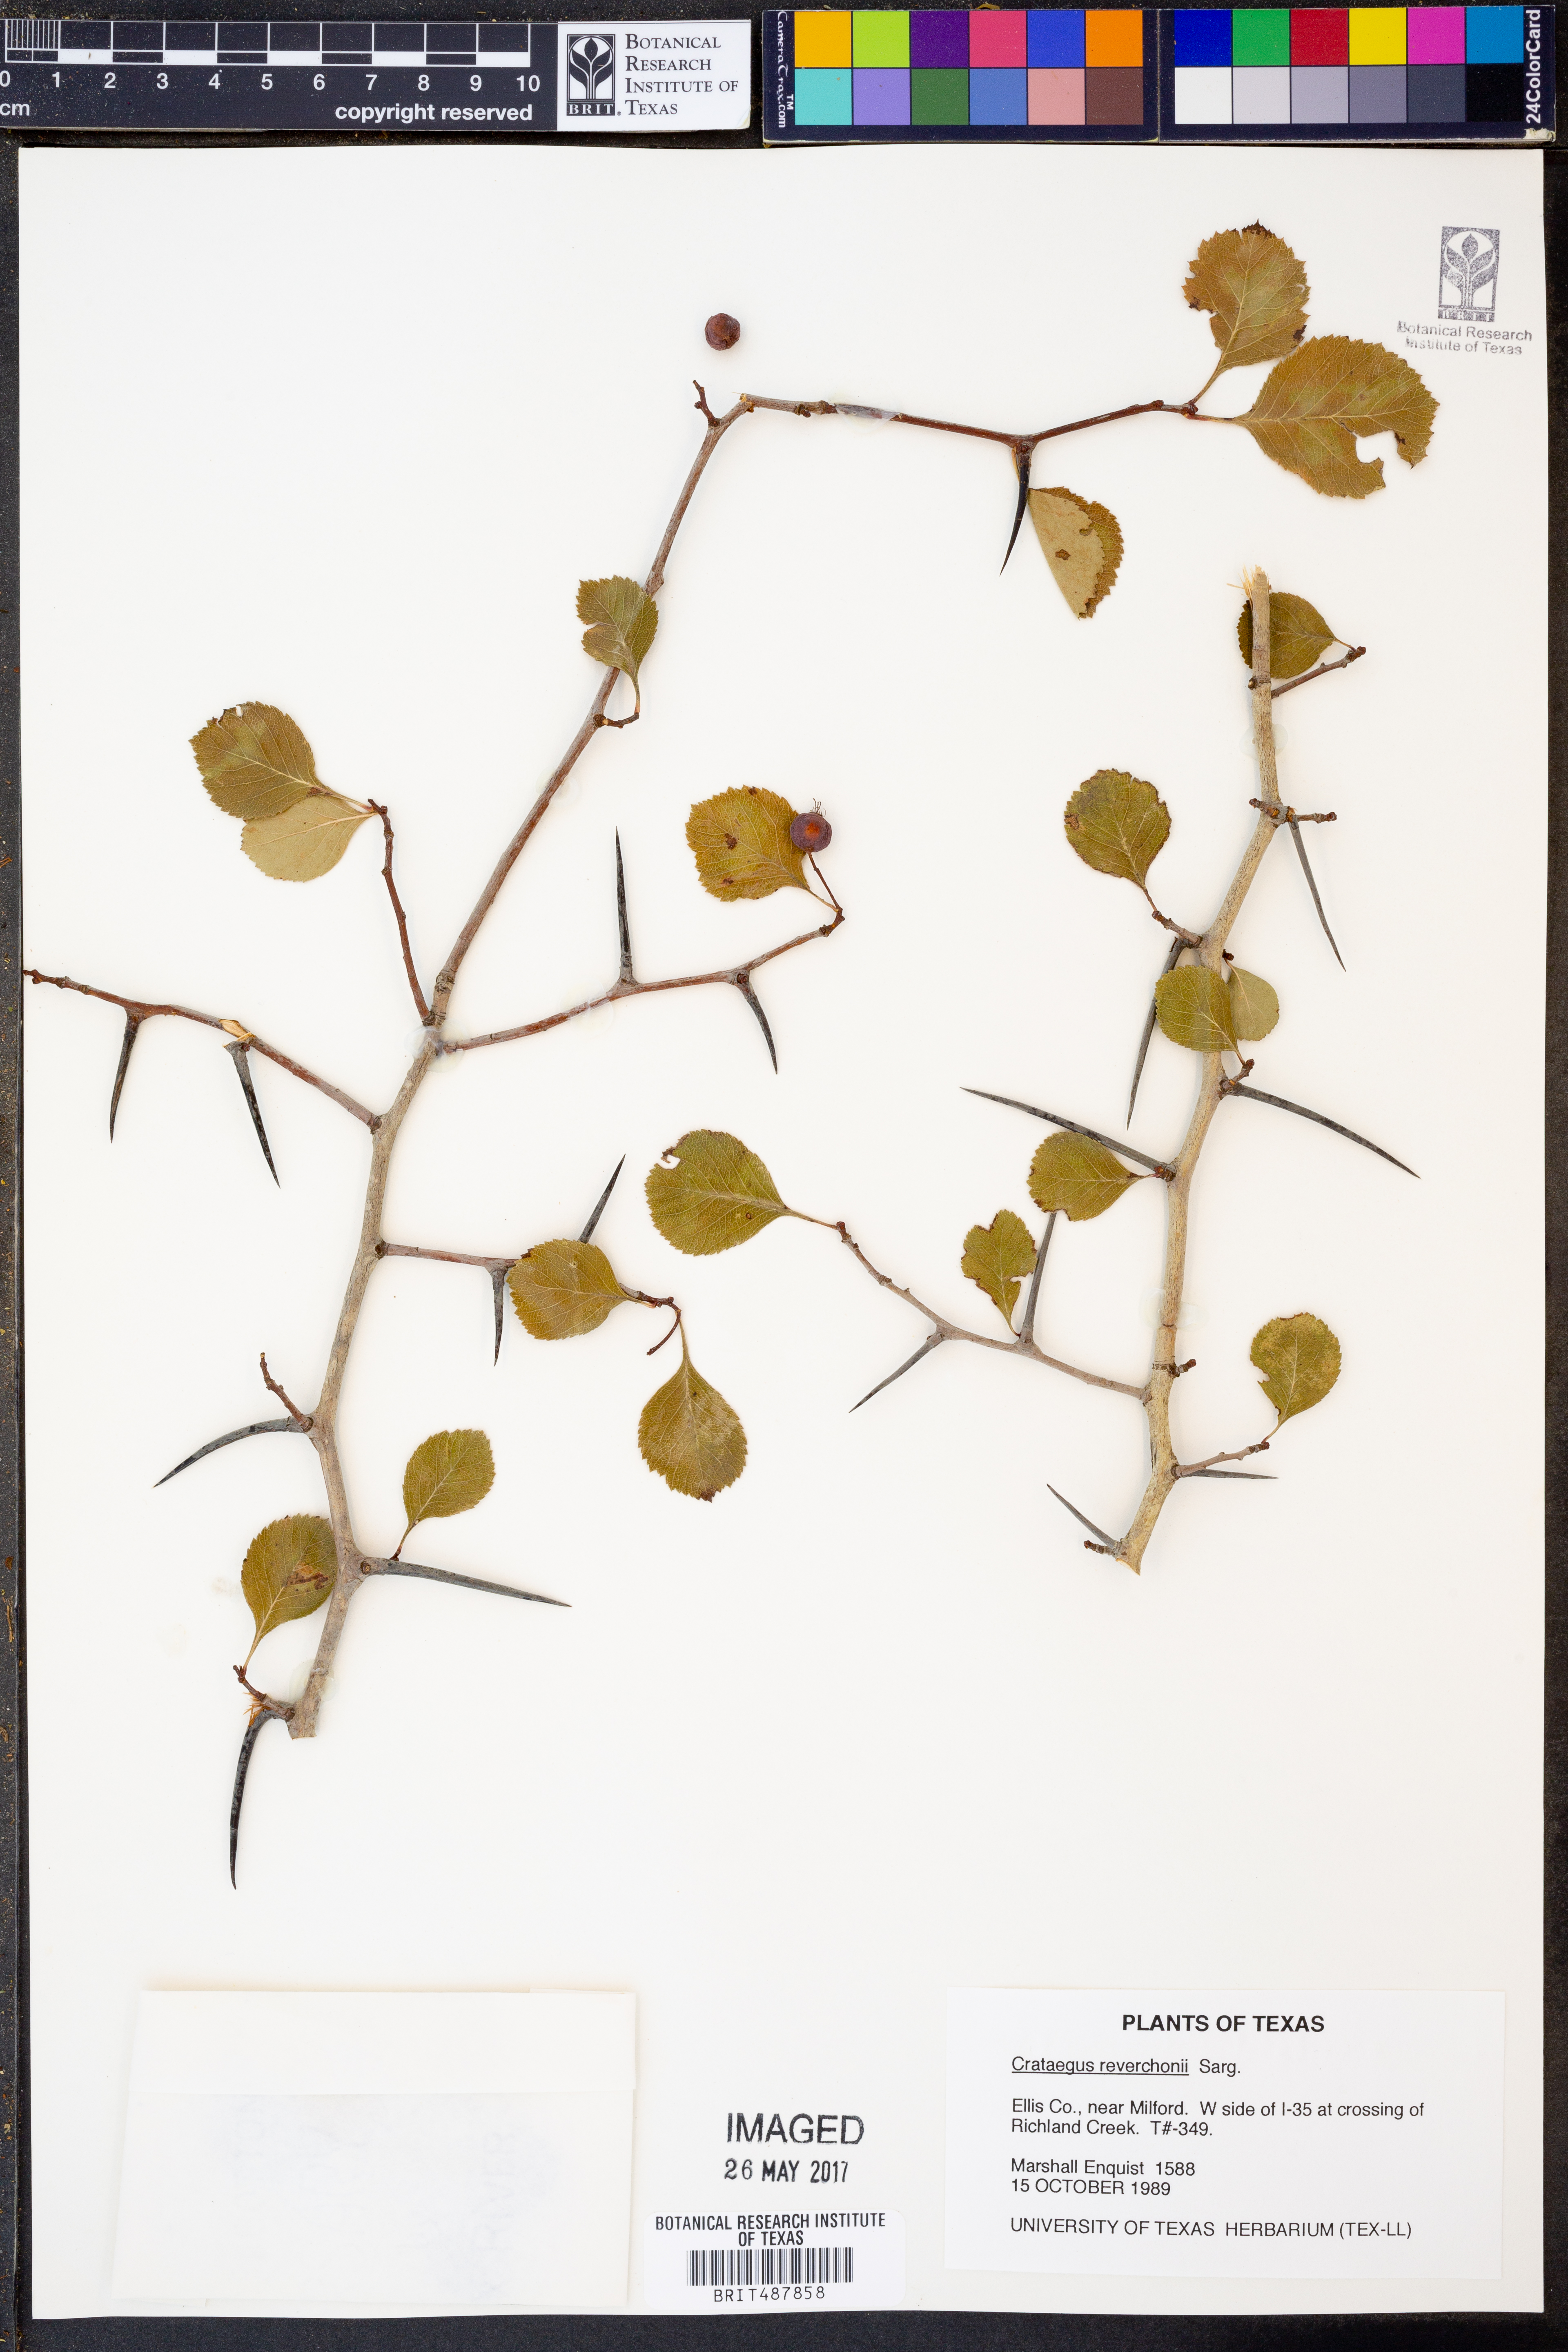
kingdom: Plantae
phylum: Tracheophyta
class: Magnoliopsida
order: Rosales
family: Rosaceae
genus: Crataegus
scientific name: Crataegus reverchonii
